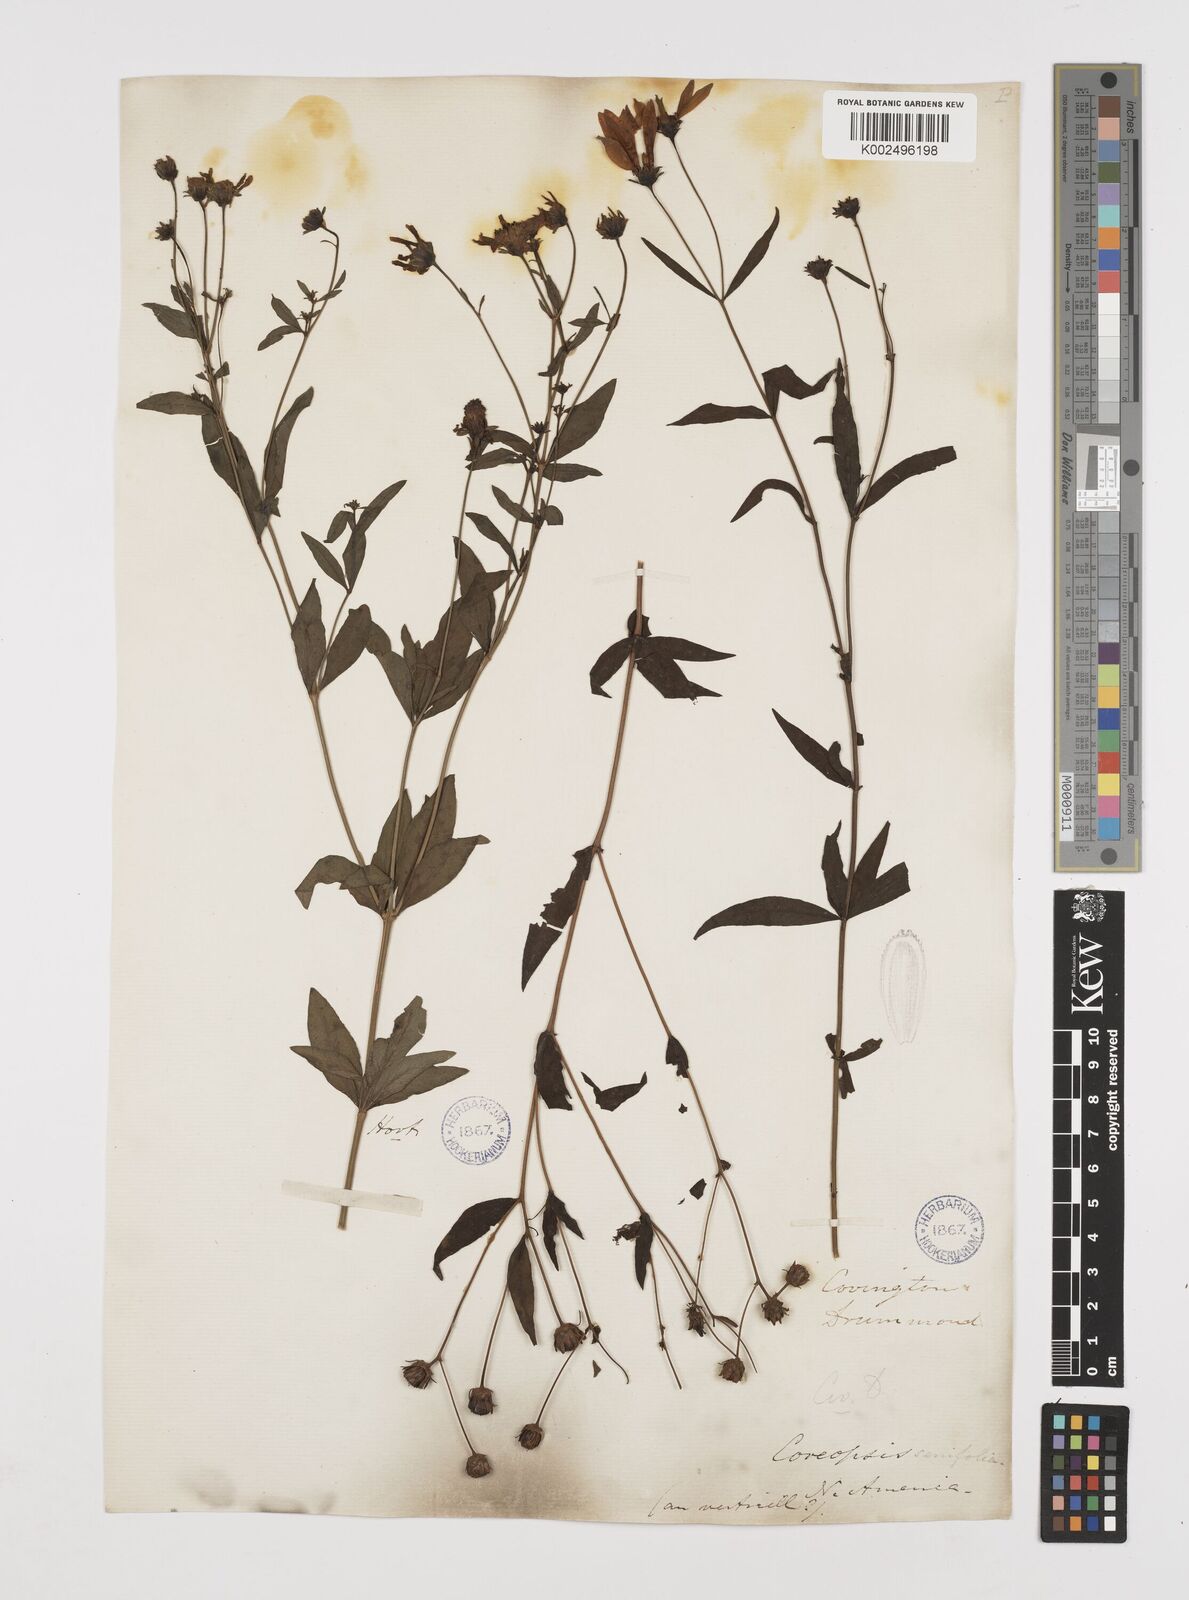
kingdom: Plantae
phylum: Tracheophyta
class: Magnoliopsida
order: Asterales
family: Asteraceae
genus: Coreopsis
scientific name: Coreopsis major
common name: Forest tickseed
